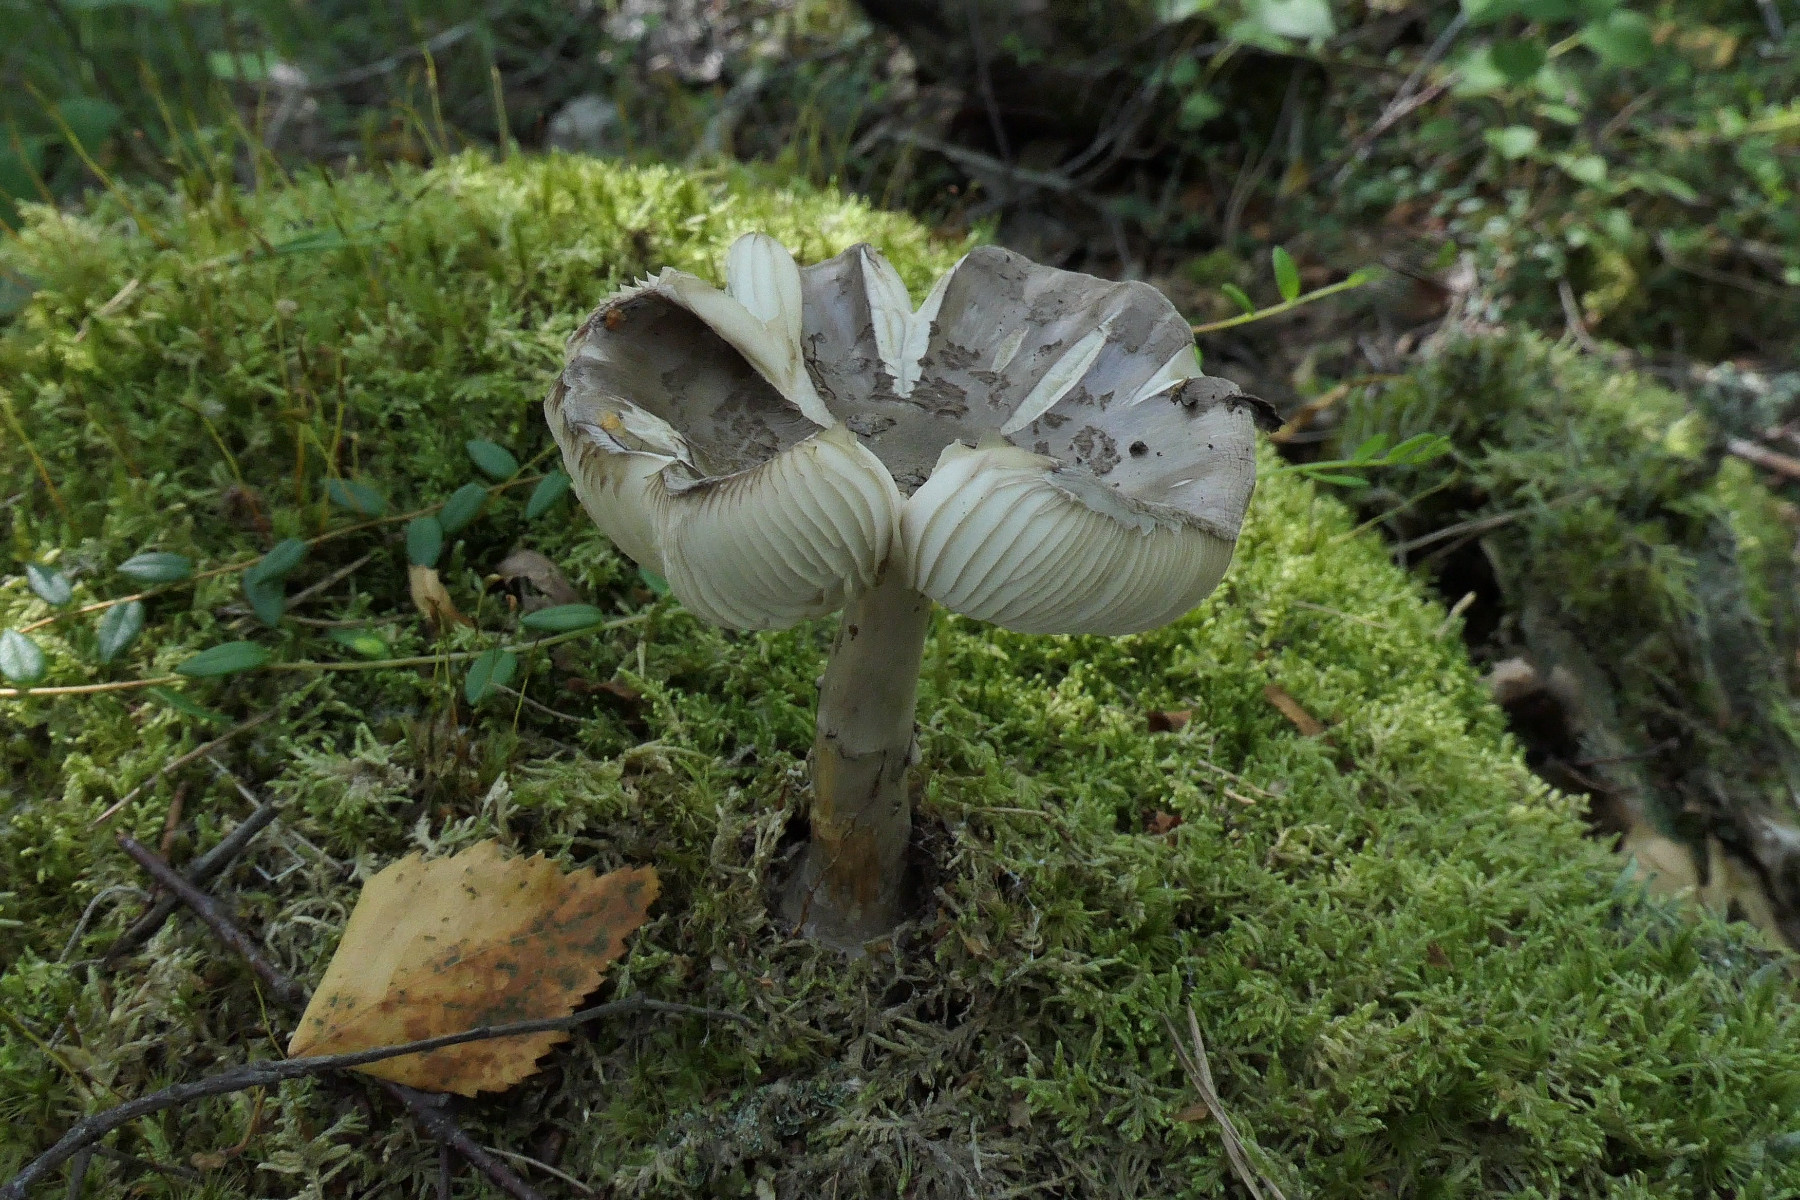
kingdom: Fungi
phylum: Basidiomycota
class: Agaricomycetes
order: Agaricales
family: Amanitaceae
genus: Amanita
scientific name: Amanita porphyria
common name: porfyr-fluesvamp
